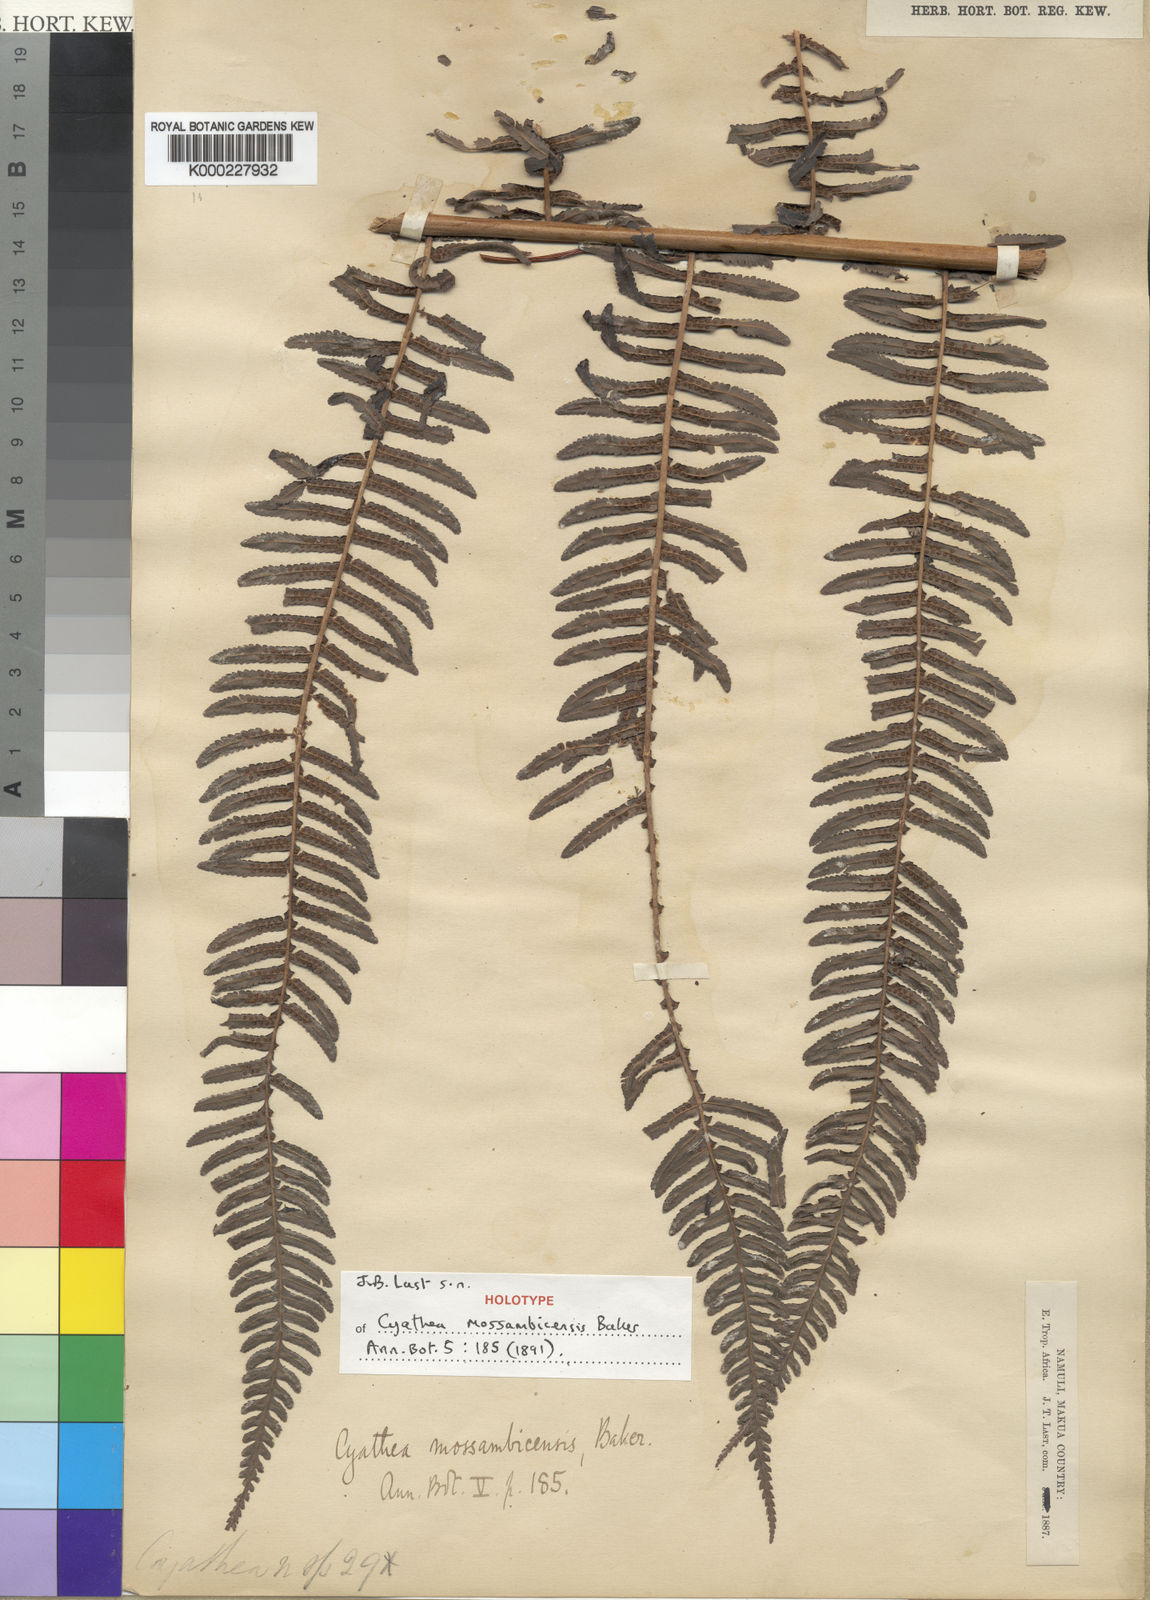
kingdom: Plantae
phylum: Tracheophyta
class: Polypodiopsida
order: Cyatheales
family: Cyatheaceae
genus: Alsophila
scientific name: Alsophila mossambicensis
